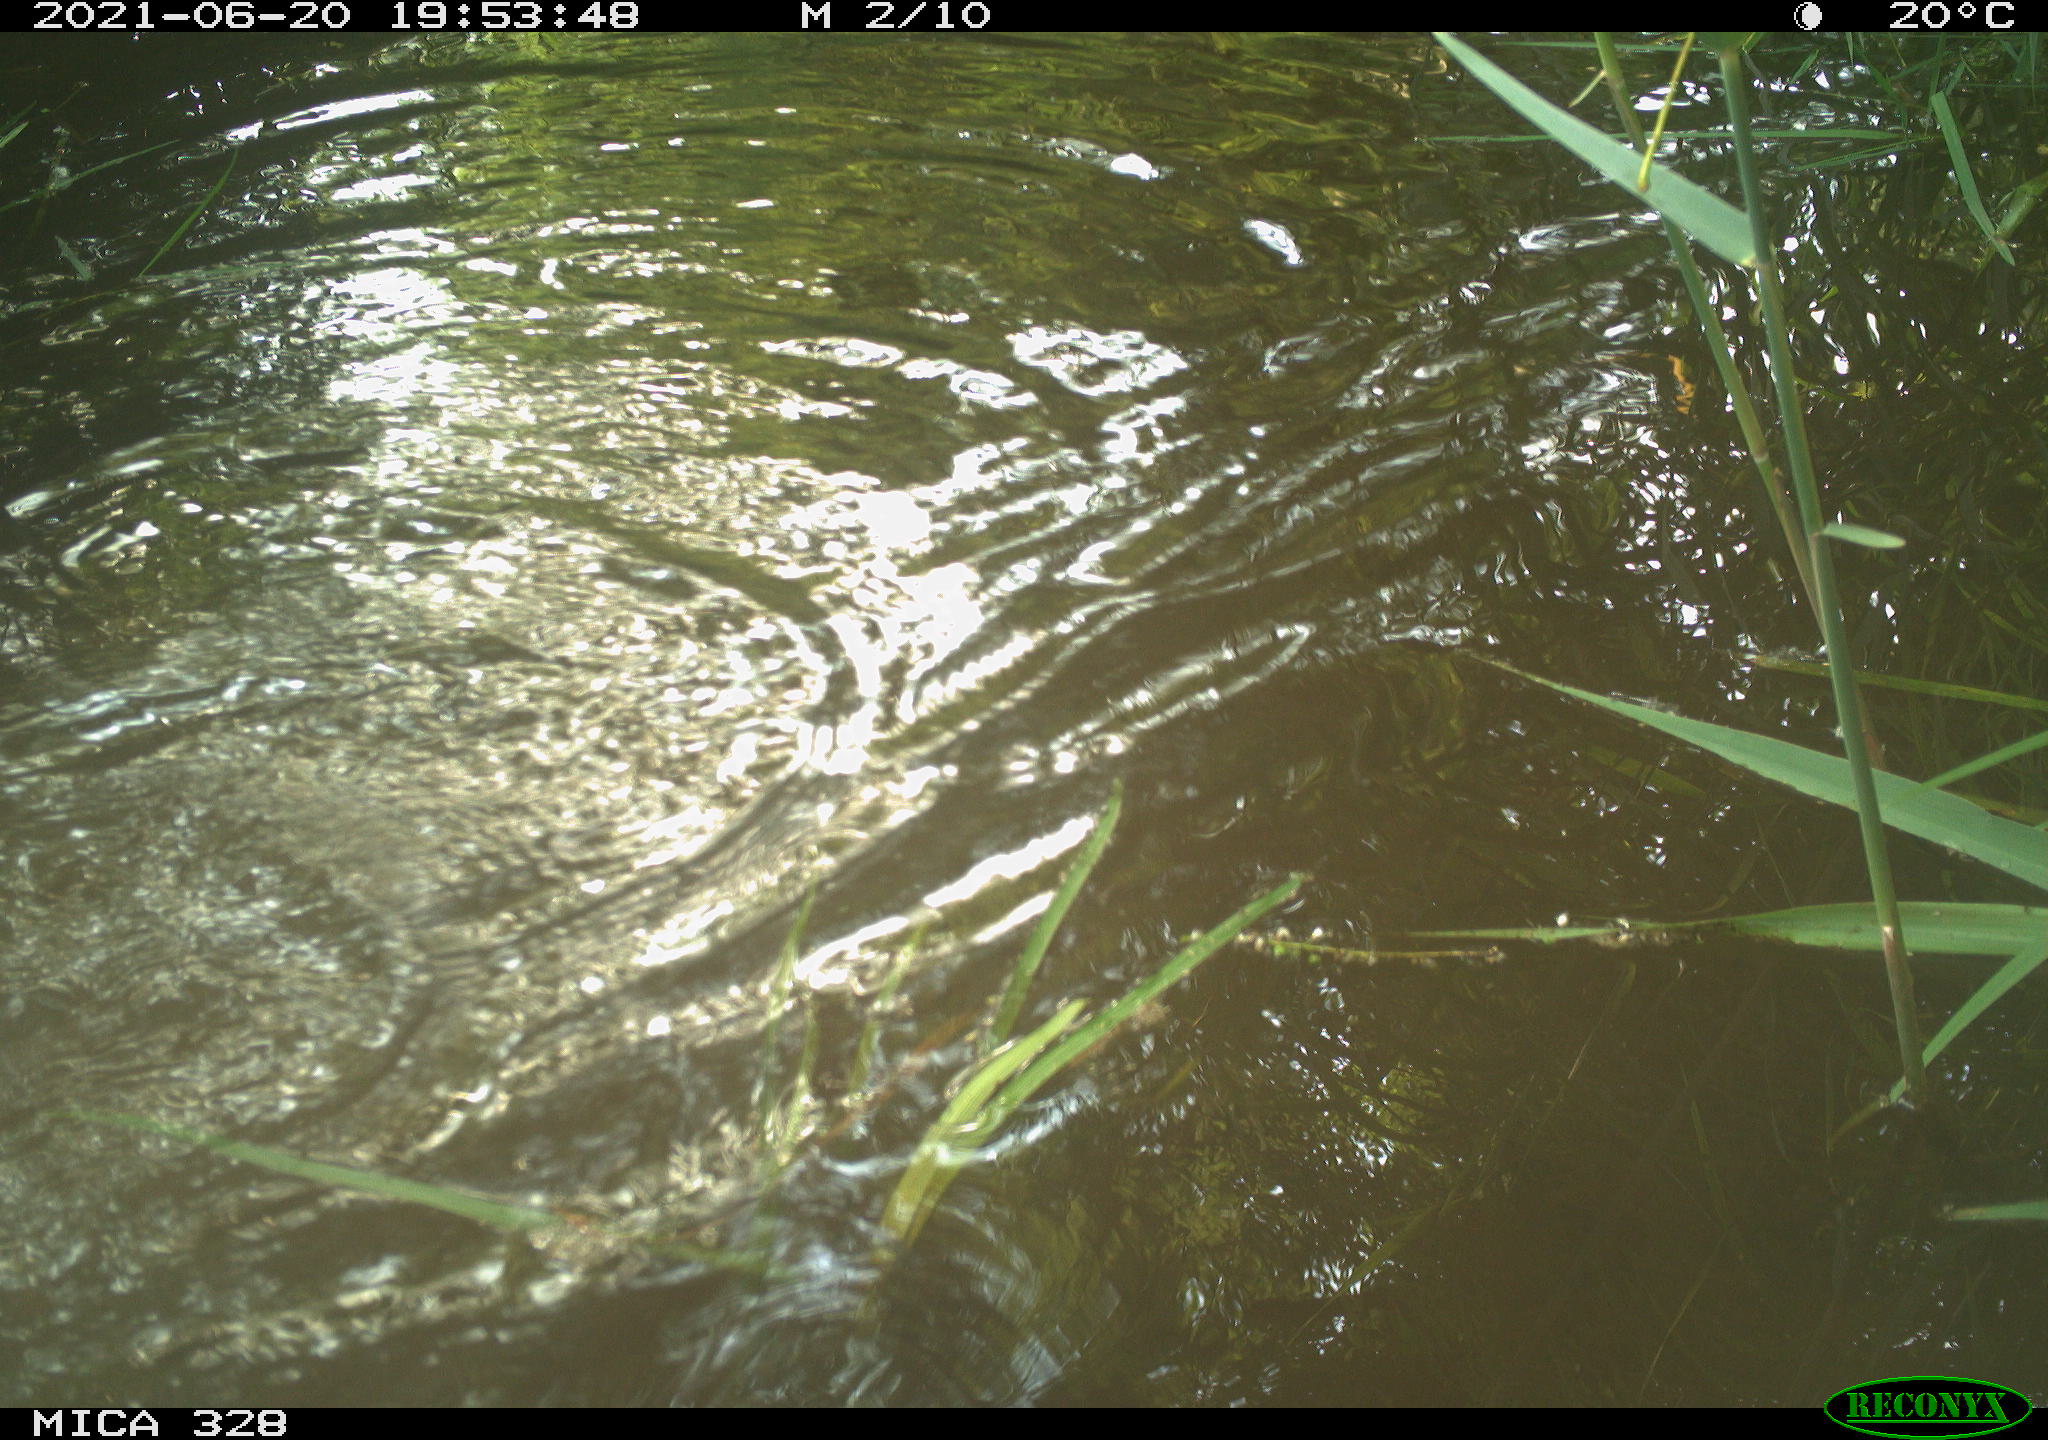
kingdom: Animalia
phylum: Chordata
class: Mammalia
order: Rodentia
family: Cricetidae
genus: Ondatra
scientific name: Ondatra zibethicus
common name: Muskrat
